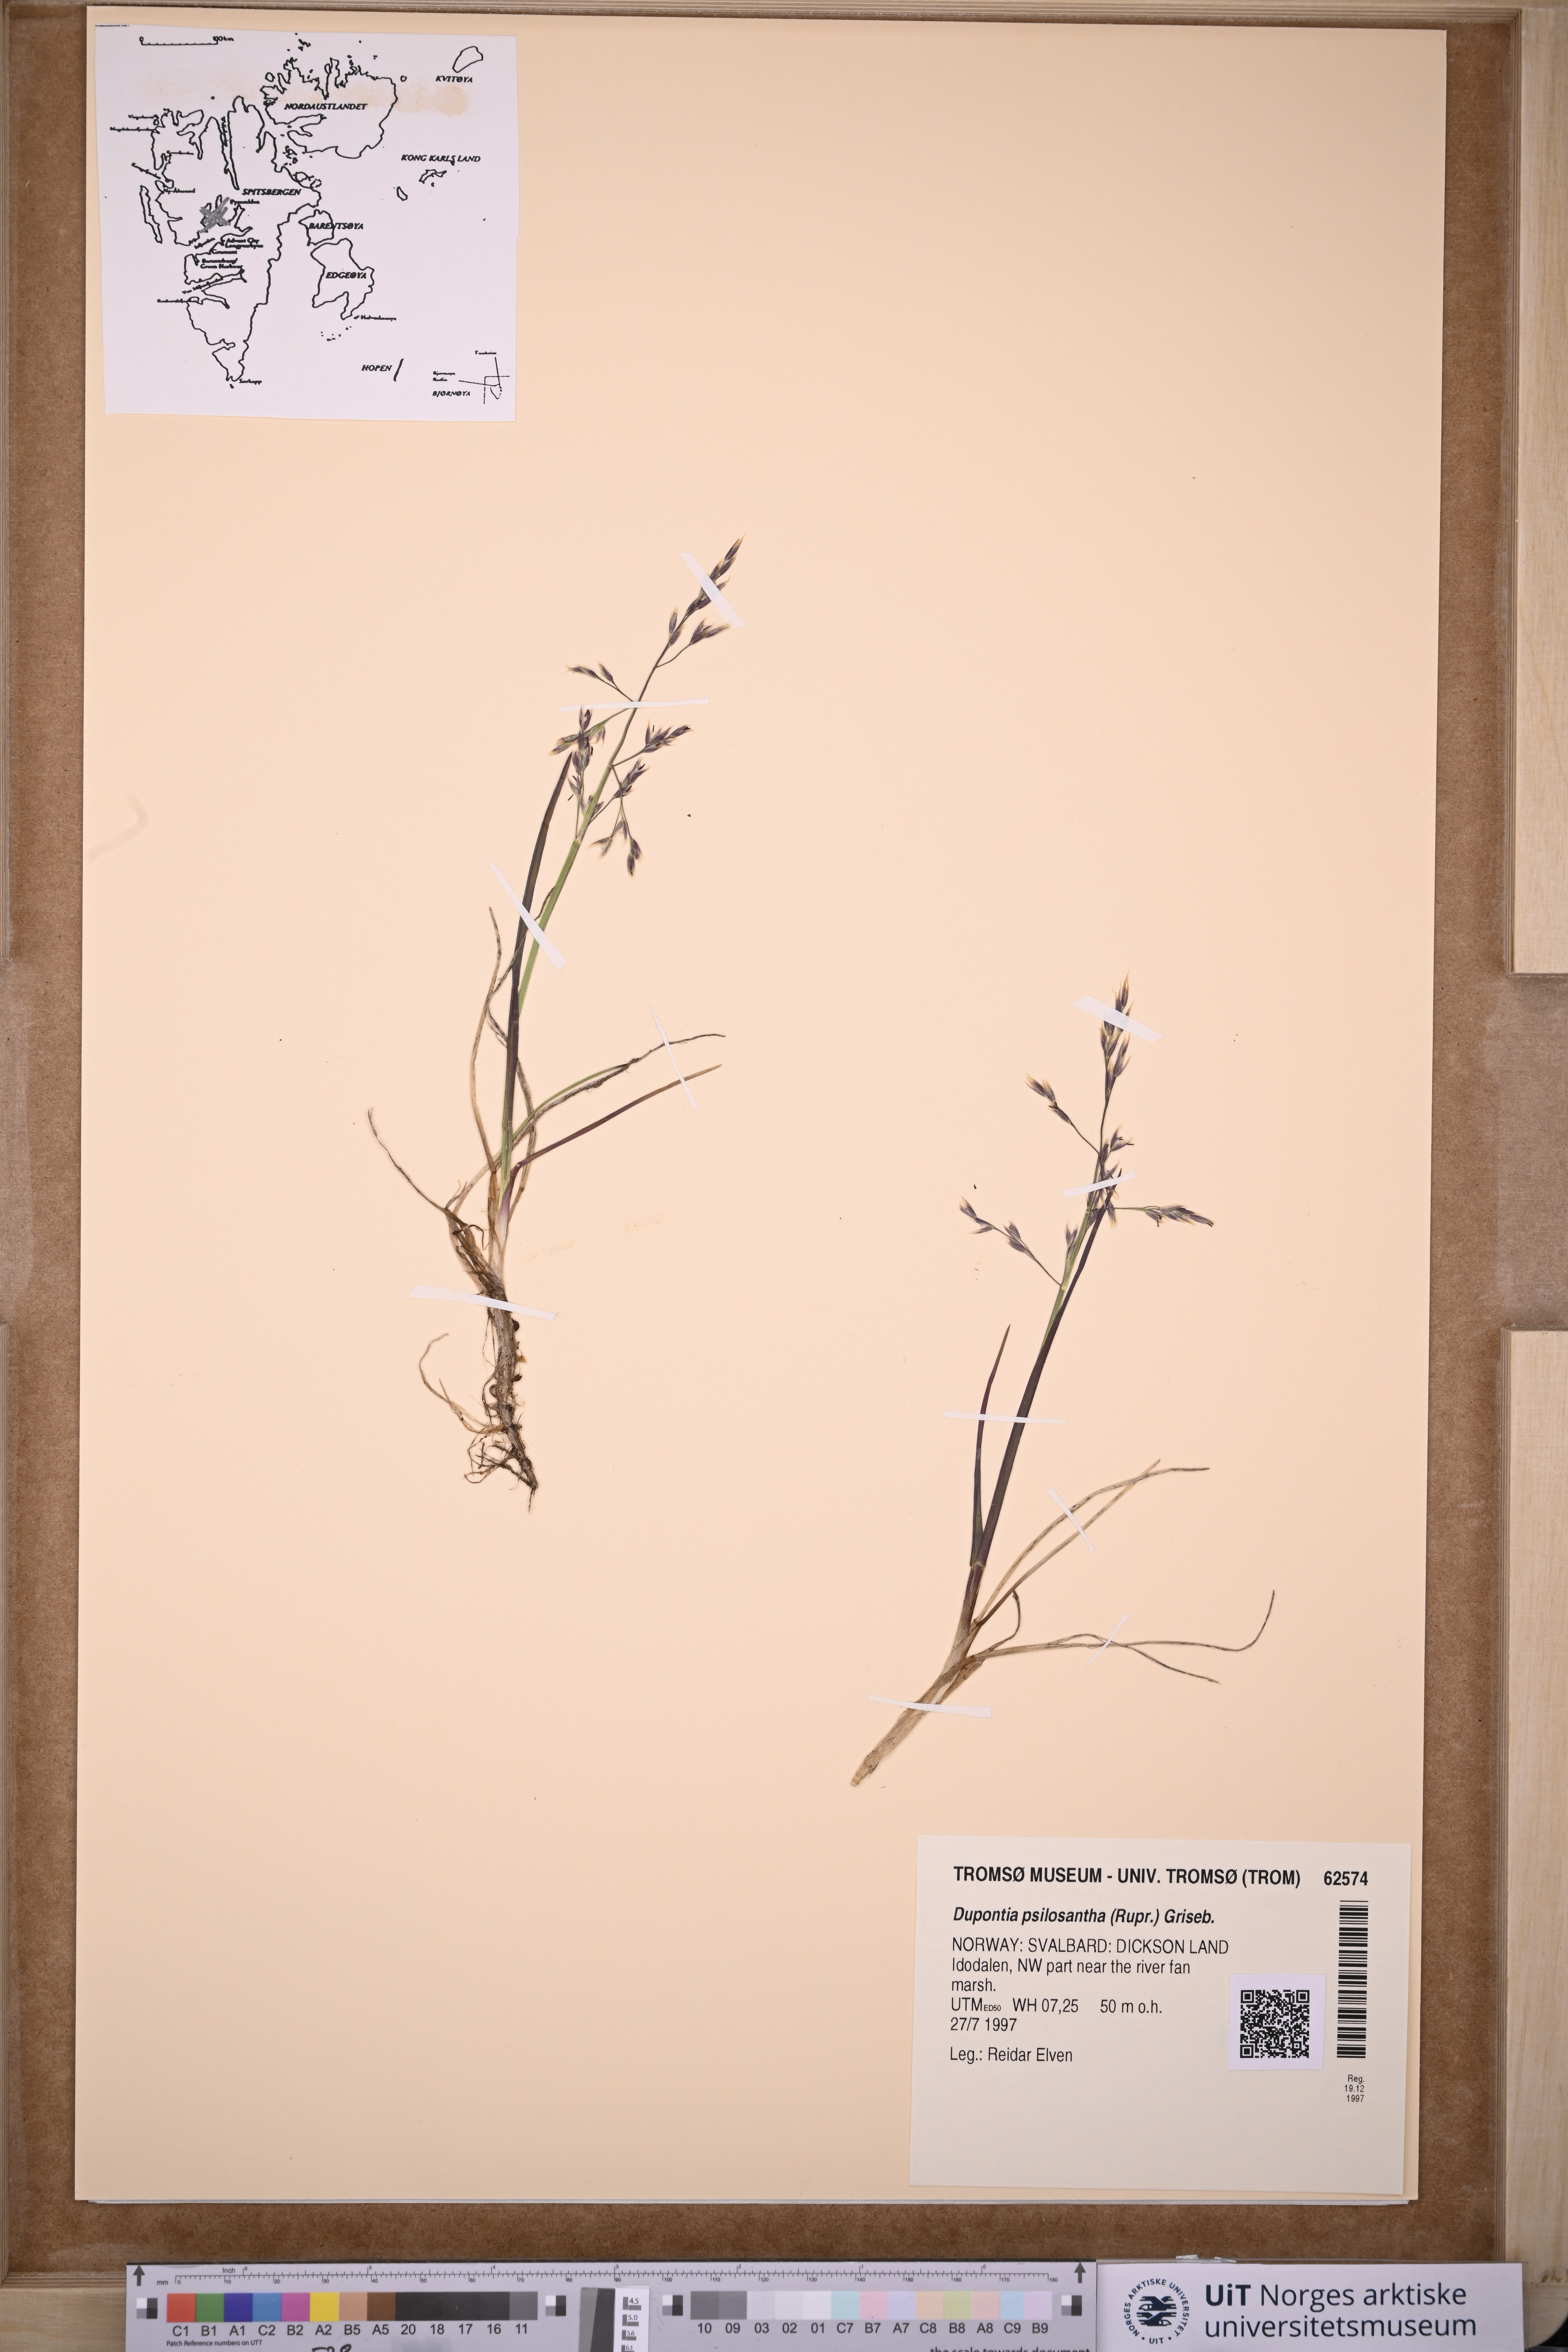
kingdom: Plantae
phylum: Tracheophyta
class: Liliopsida
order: Poales
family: Poaceae
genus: Dupontia
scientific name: Dupontia fisheri
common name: Tundra grass
